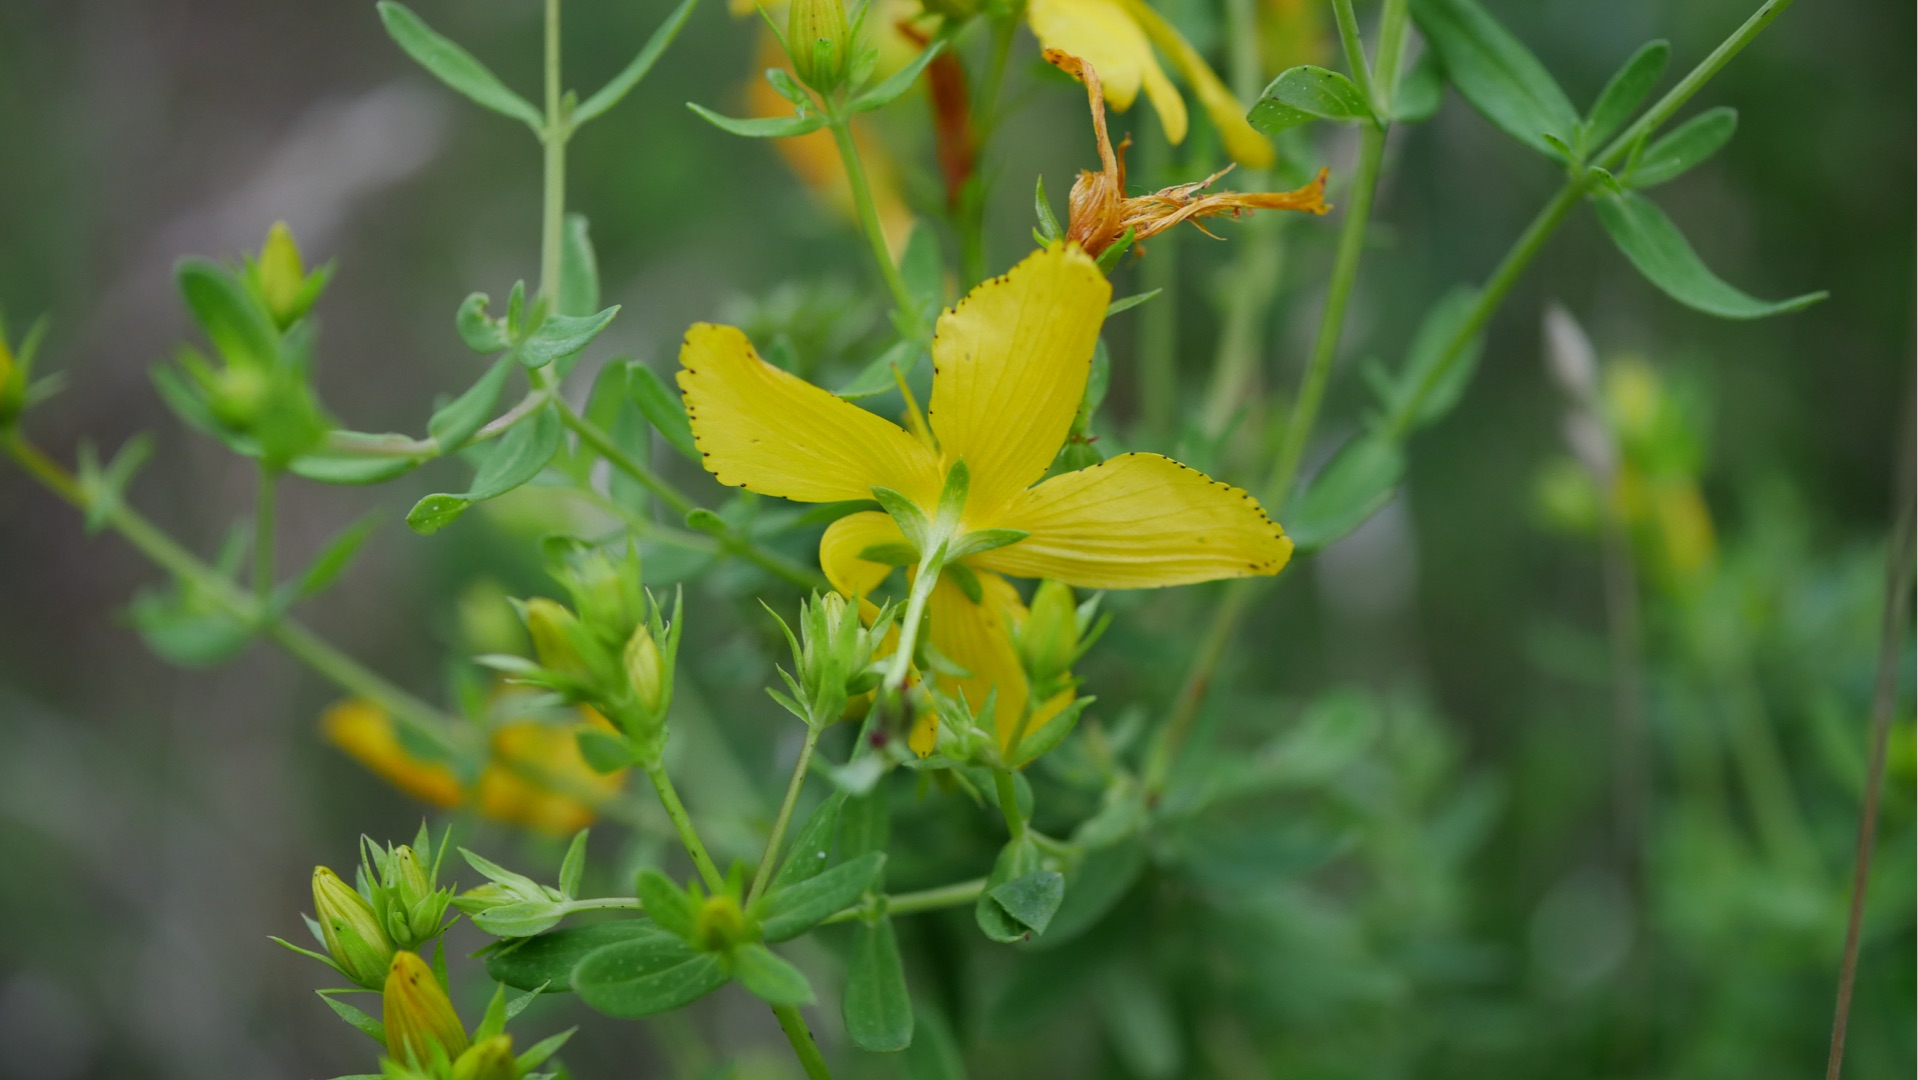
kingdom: Plantae
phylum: Tracheophyta
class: Magnoliopsida
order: Malpighiales
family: Hypericaceae
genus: Hypericum
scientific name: Hypericum perforatum
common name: Prikbladet perikon
